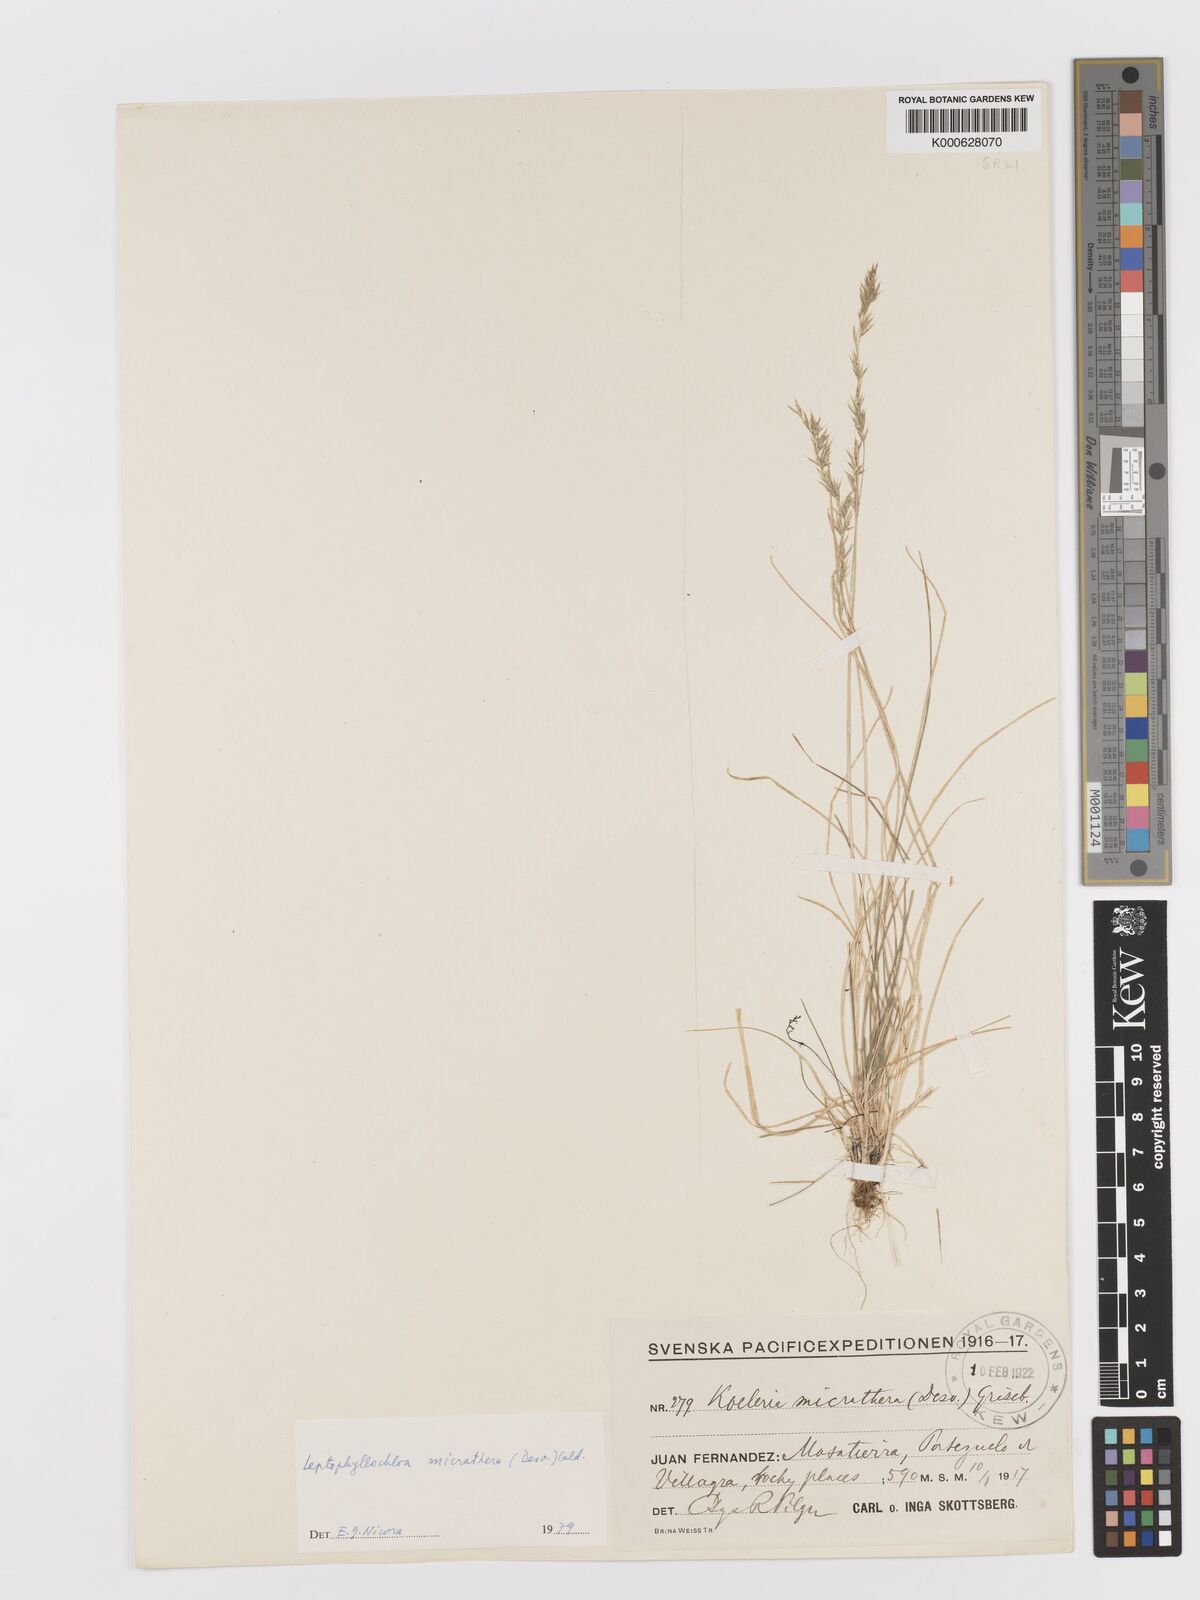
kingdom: Plantae
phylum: Tracheophyta
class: Liliopsida
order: Poales
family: Poaceae
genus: Cinnagrostis
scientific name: Cinnagrostis micrathera
